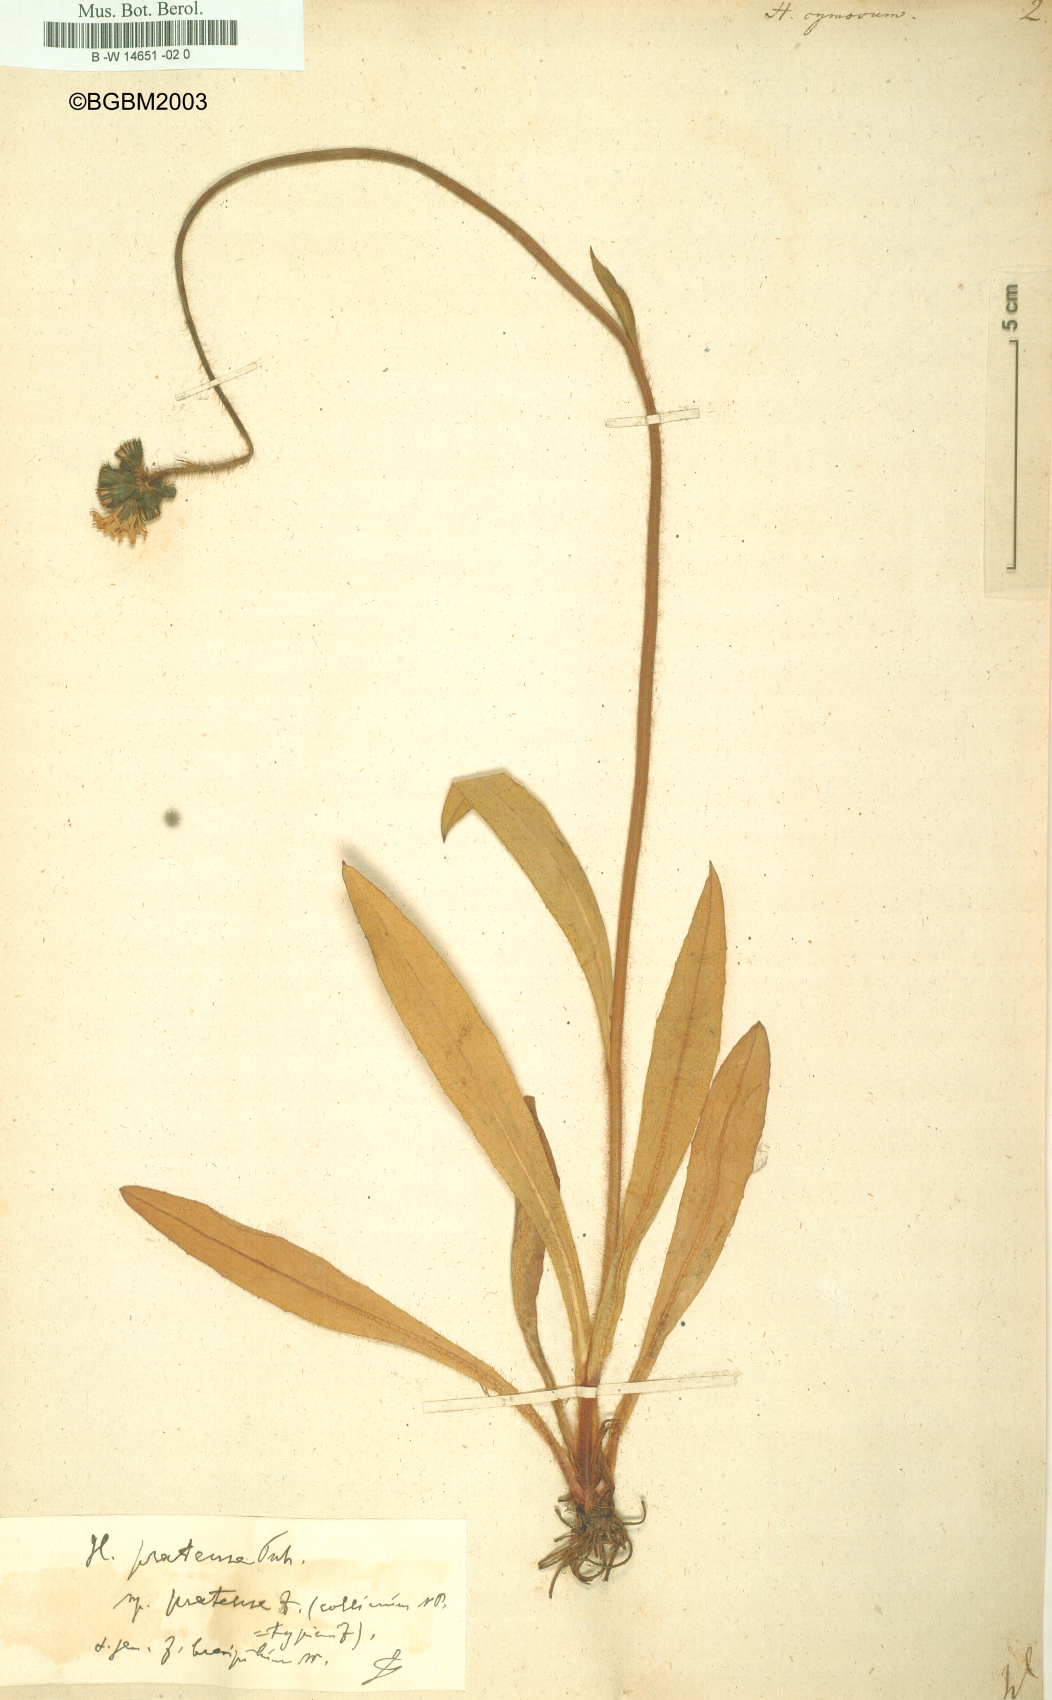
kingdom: Plantae
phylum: Tracheophyta
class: Magnoliopsida
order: Asterales
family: Asteraceae
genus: Hieracium
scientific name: Hieracium cymosum
